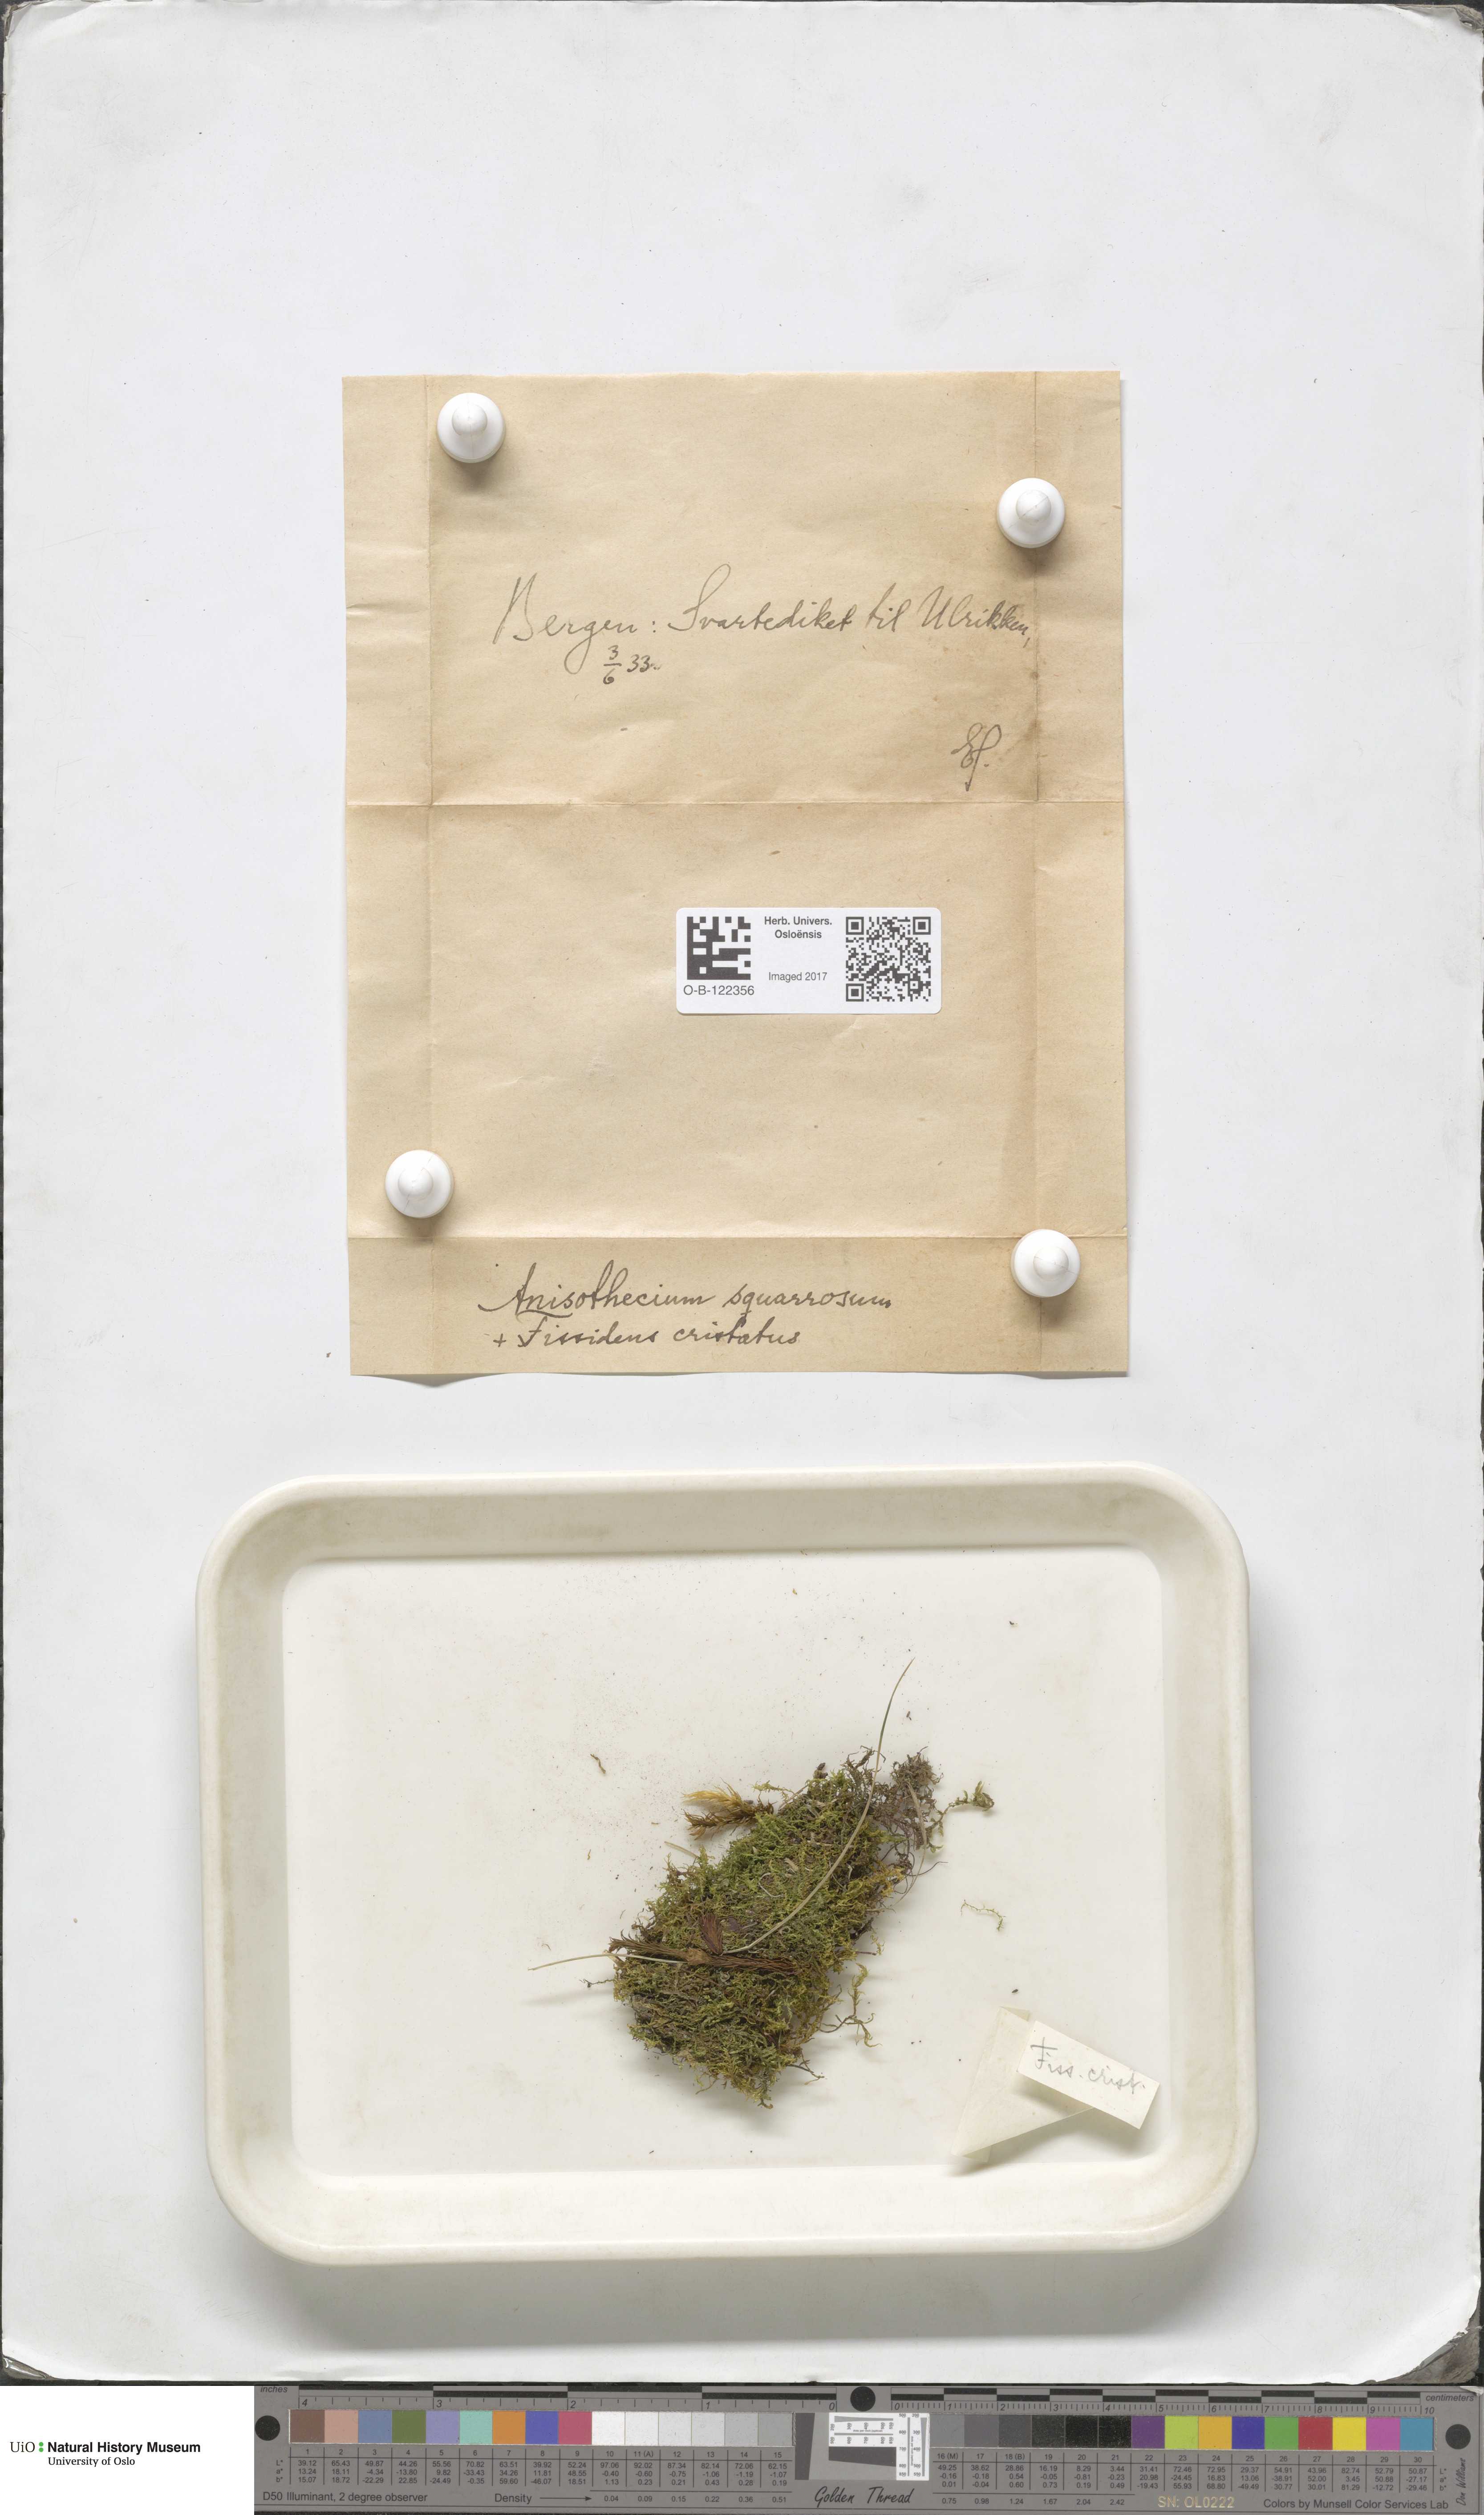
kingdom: Plantae
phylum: Bryophyta
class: Bryopsida
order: Dicranales
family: Aongstroemiaceae
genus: Diobelonella
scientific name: Diobelonella palustris
